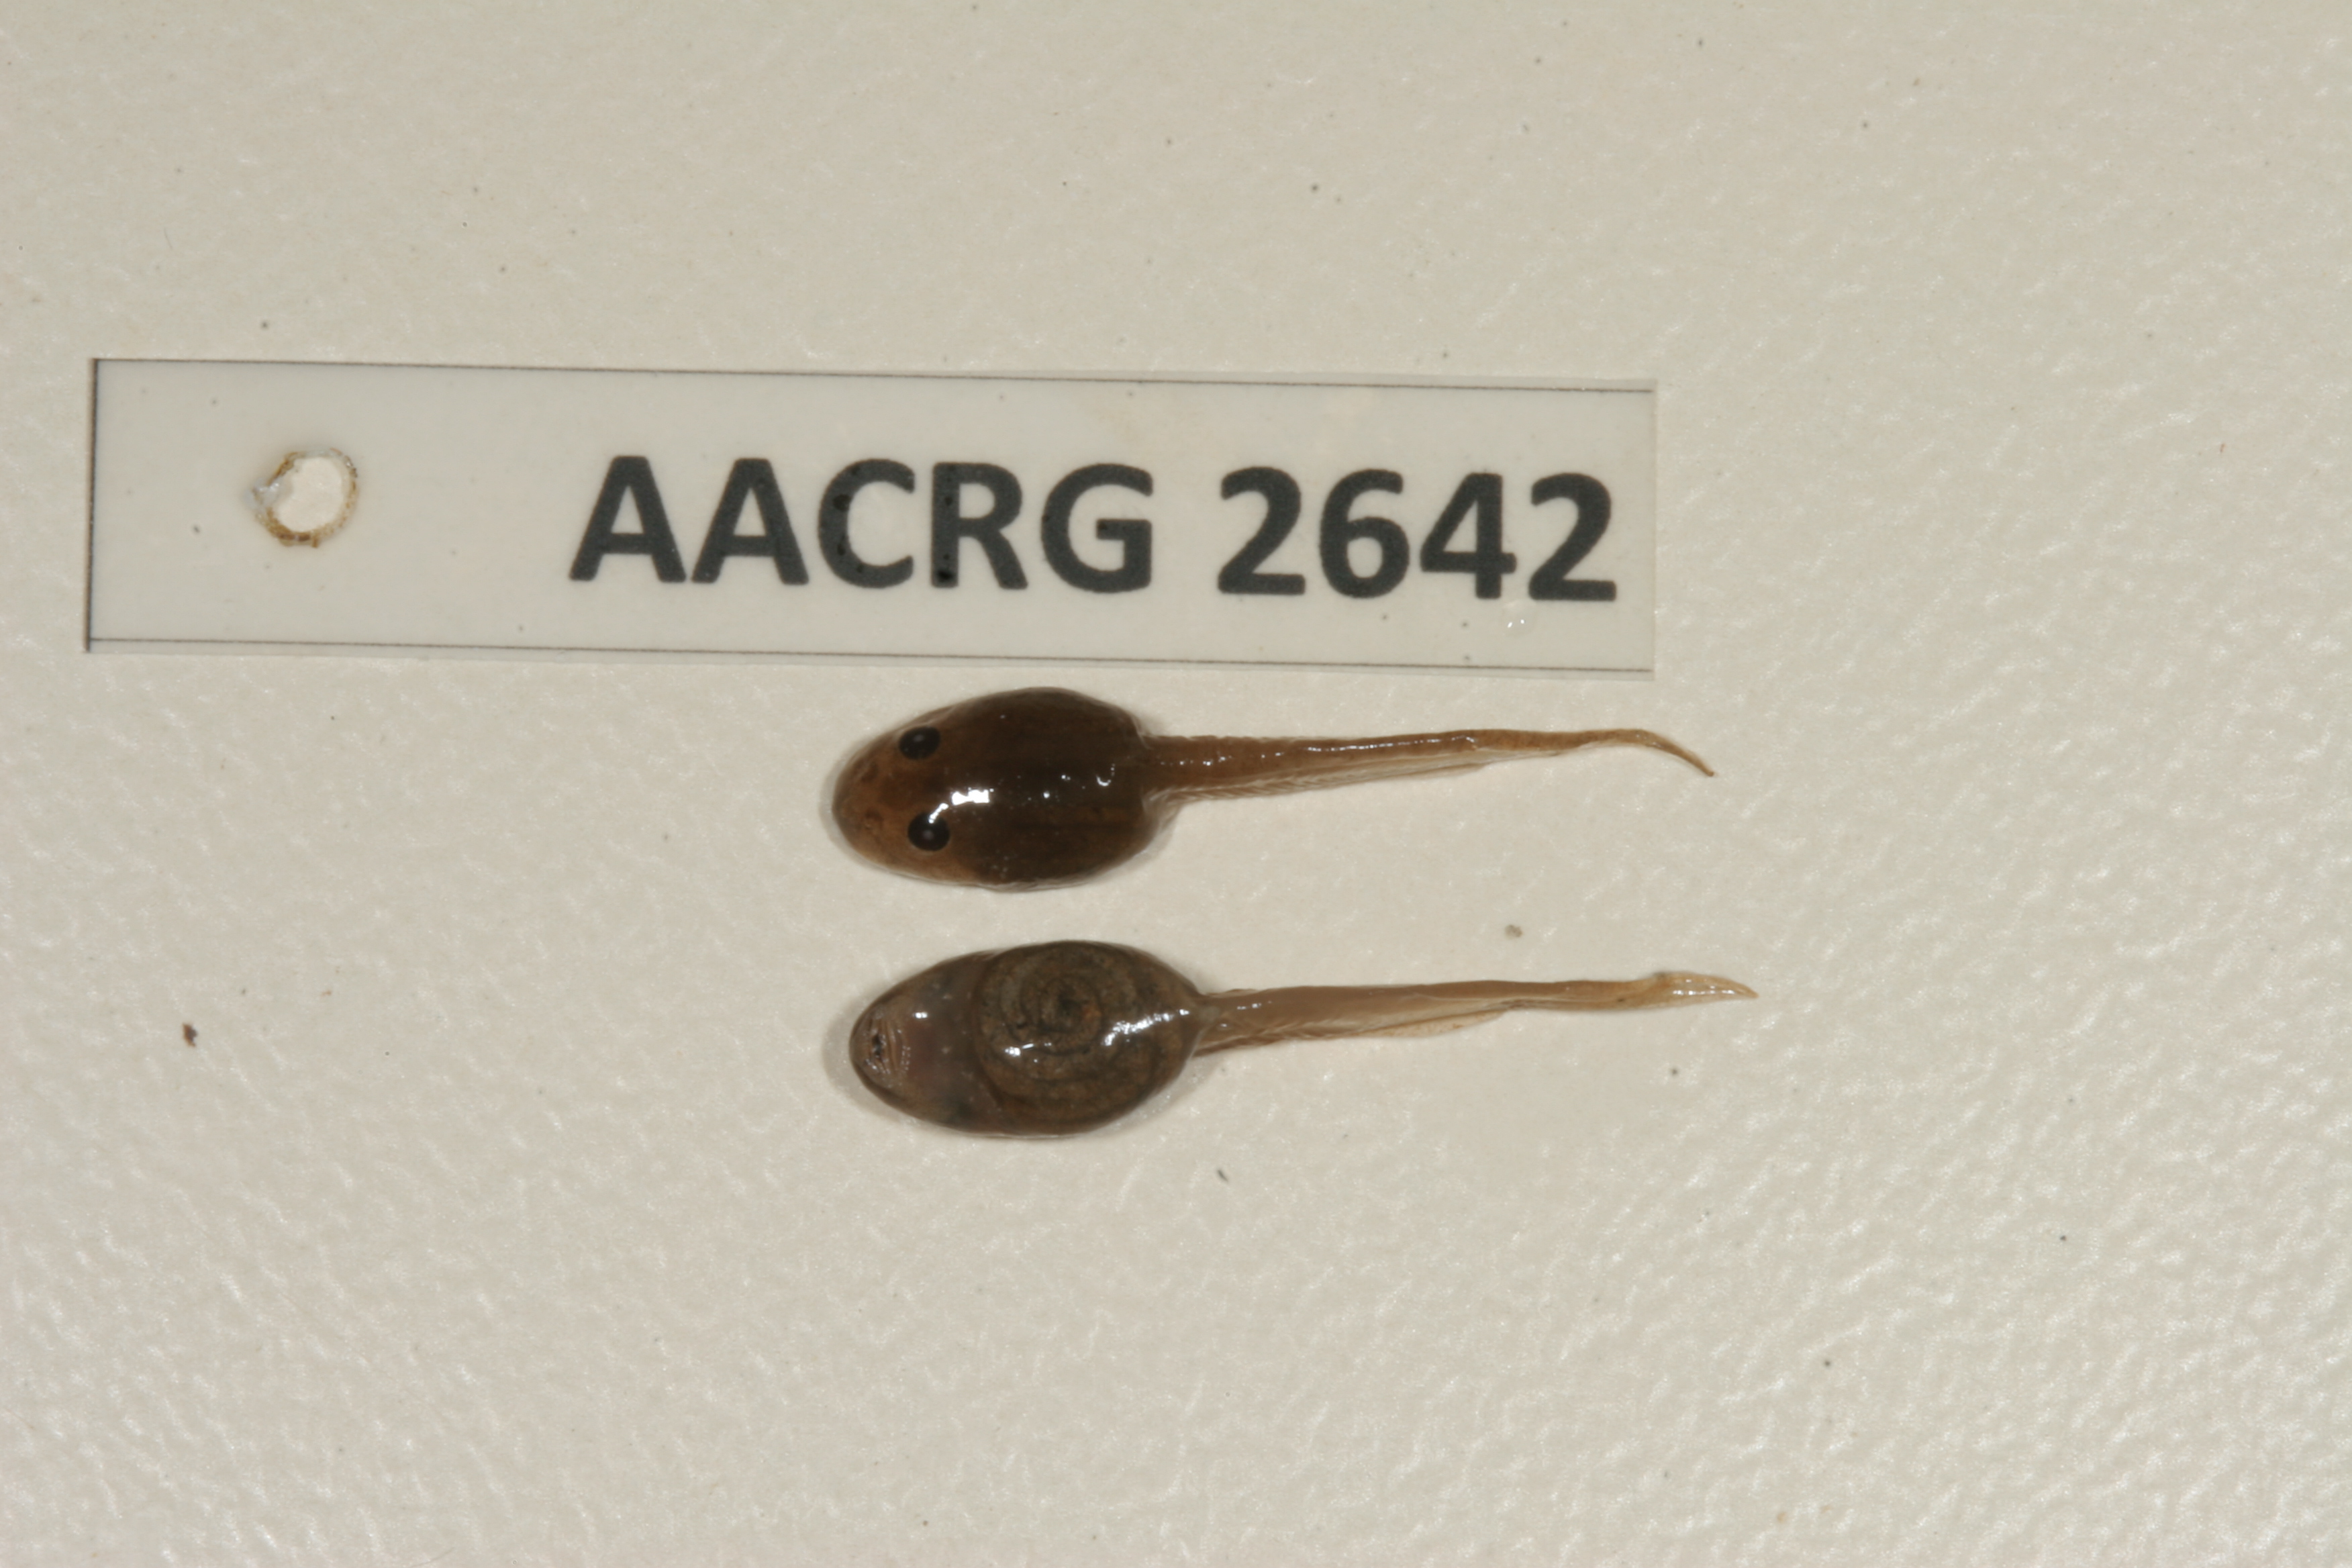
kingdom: Animalia
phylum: Chordata
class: Amphibia
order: Anura
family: Pyxicephalidae
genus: Amietia
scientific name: Amietia fuscigula
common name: Cape rana
